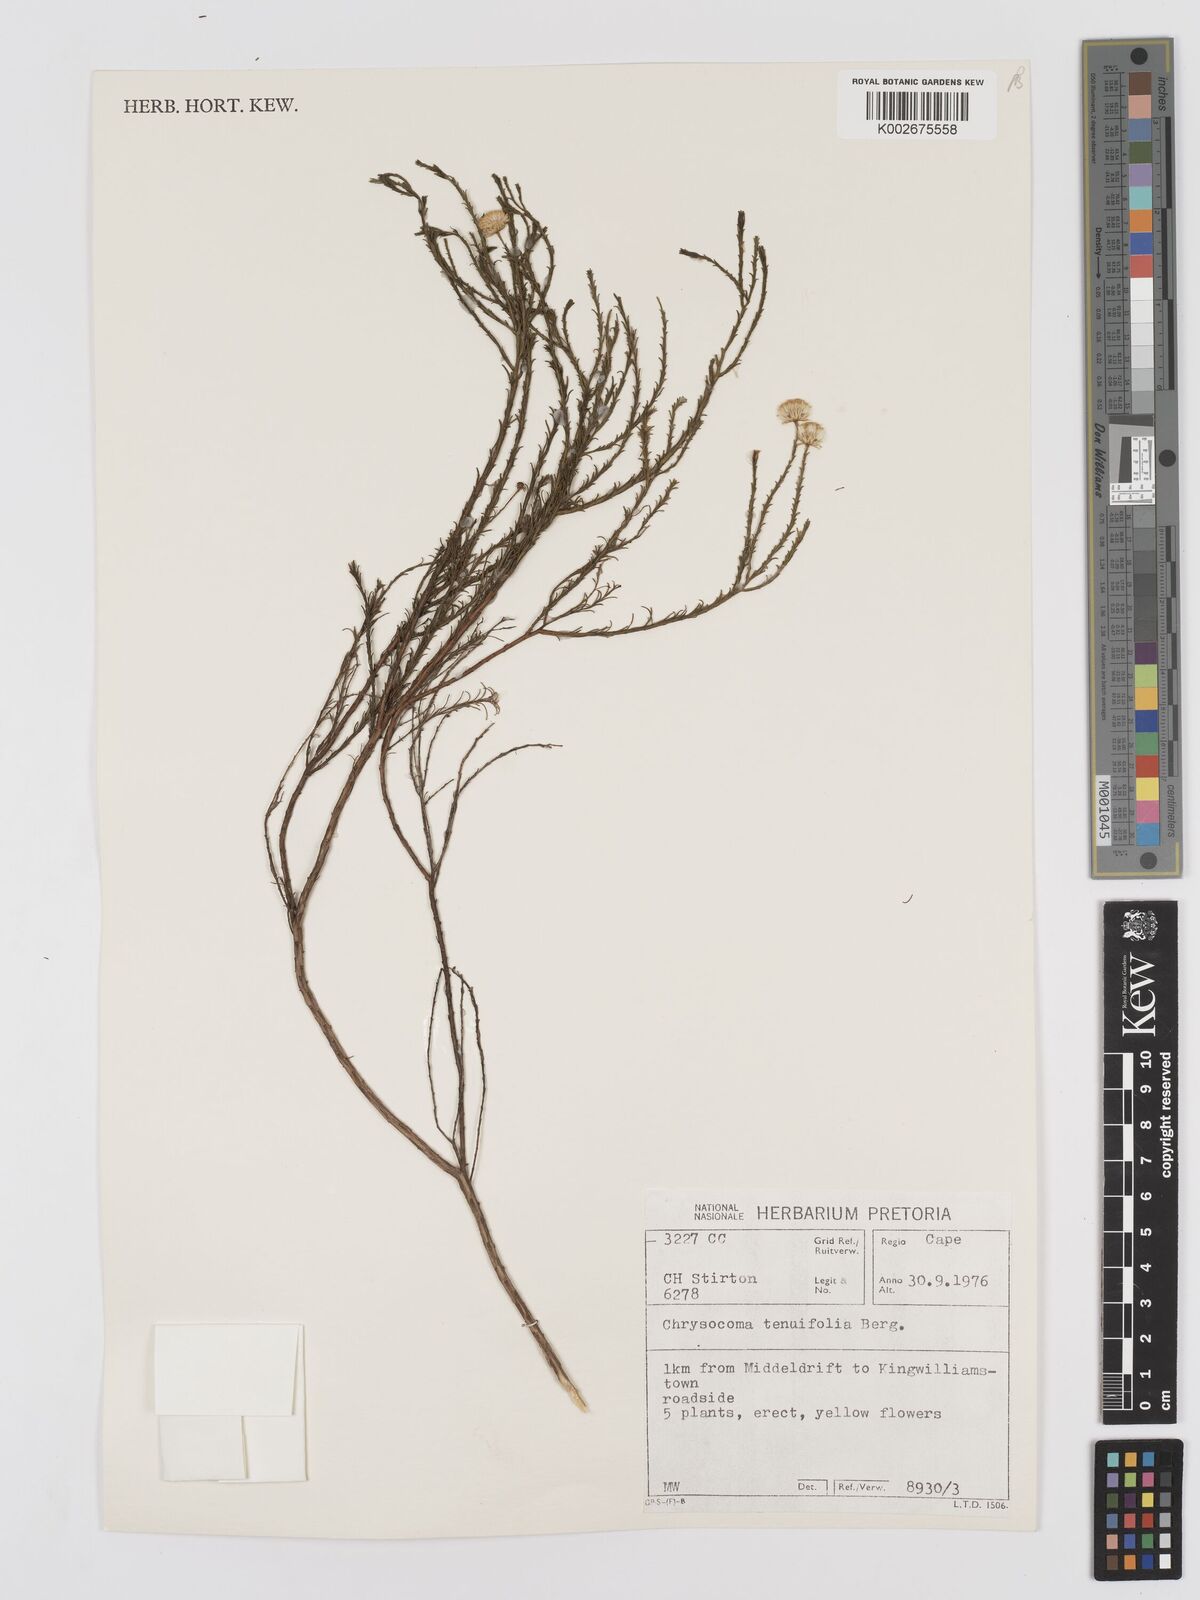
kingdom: Plantae
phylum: Tracheophyta
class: Magnoliopsida
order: Asterales
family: Asteraceae
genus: Chrysocoma
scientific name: Chrysocoma ciliata
